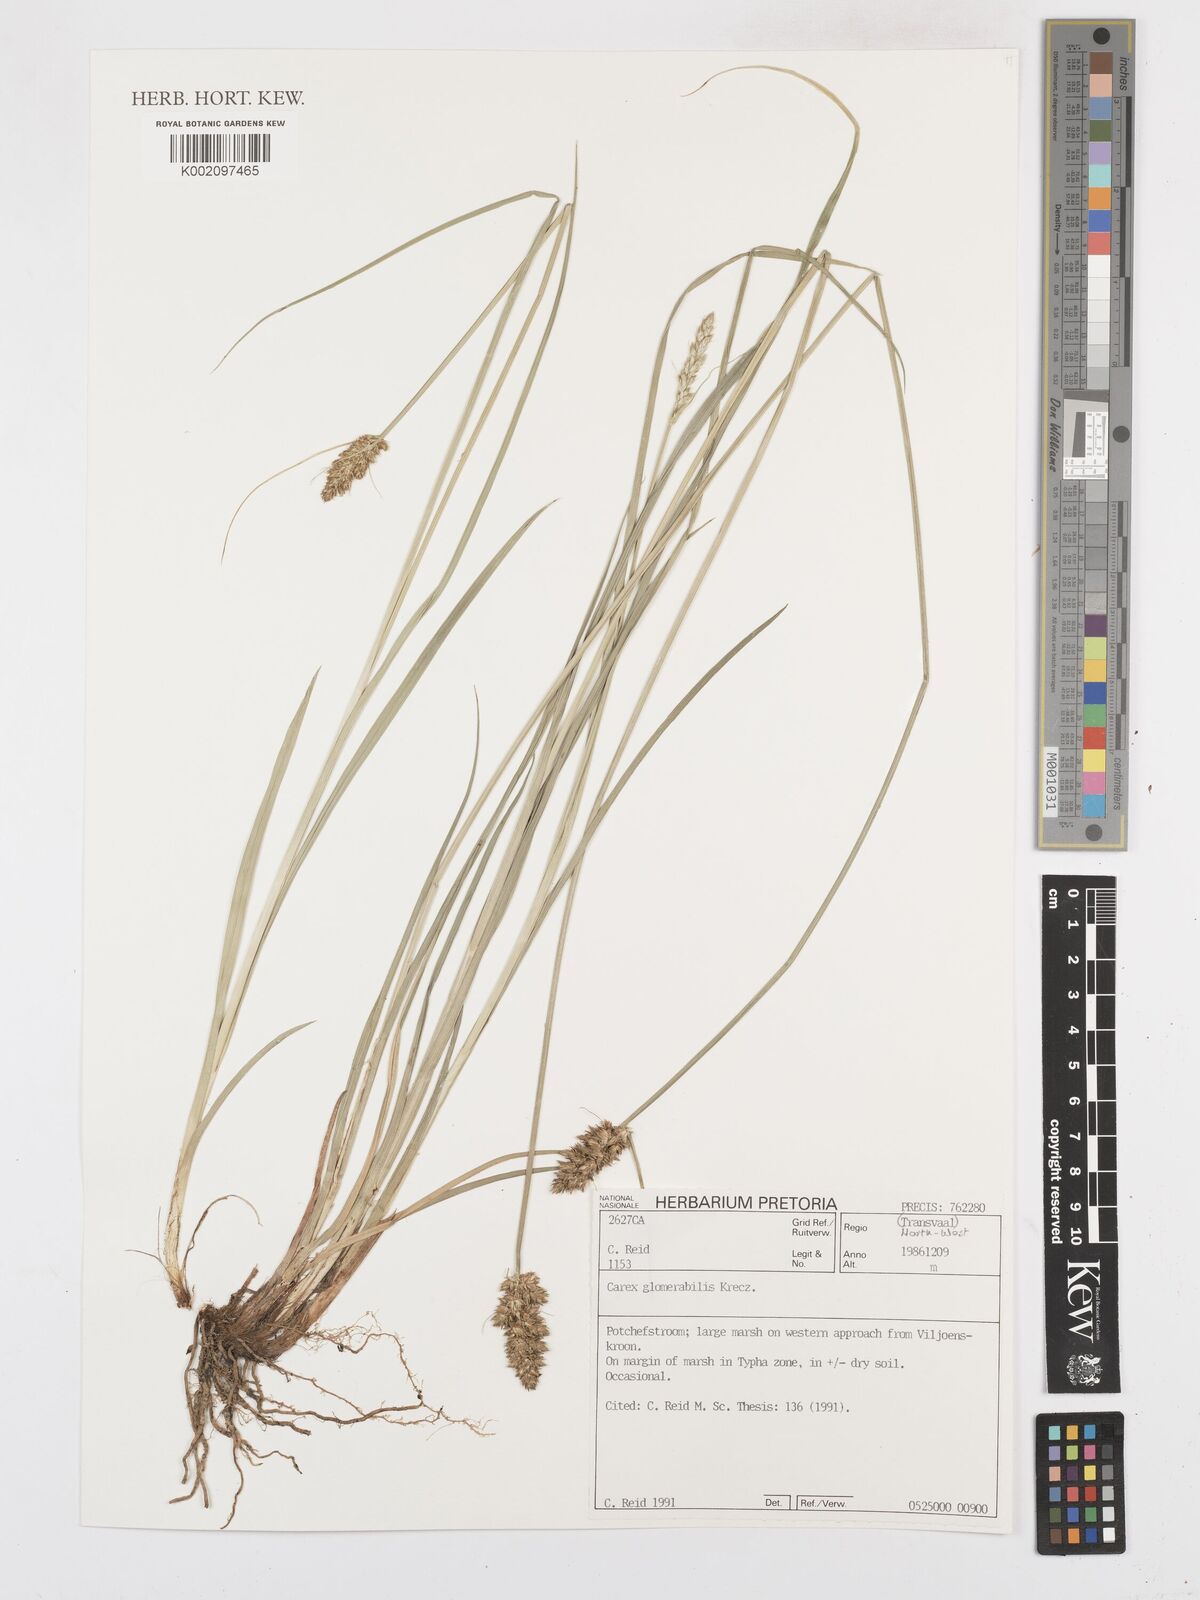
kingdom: Plantae
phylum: Tracheophyta
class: Liliopsida
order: Poales
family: Cyperaceae
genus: Carex
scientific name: Carex glomerata
